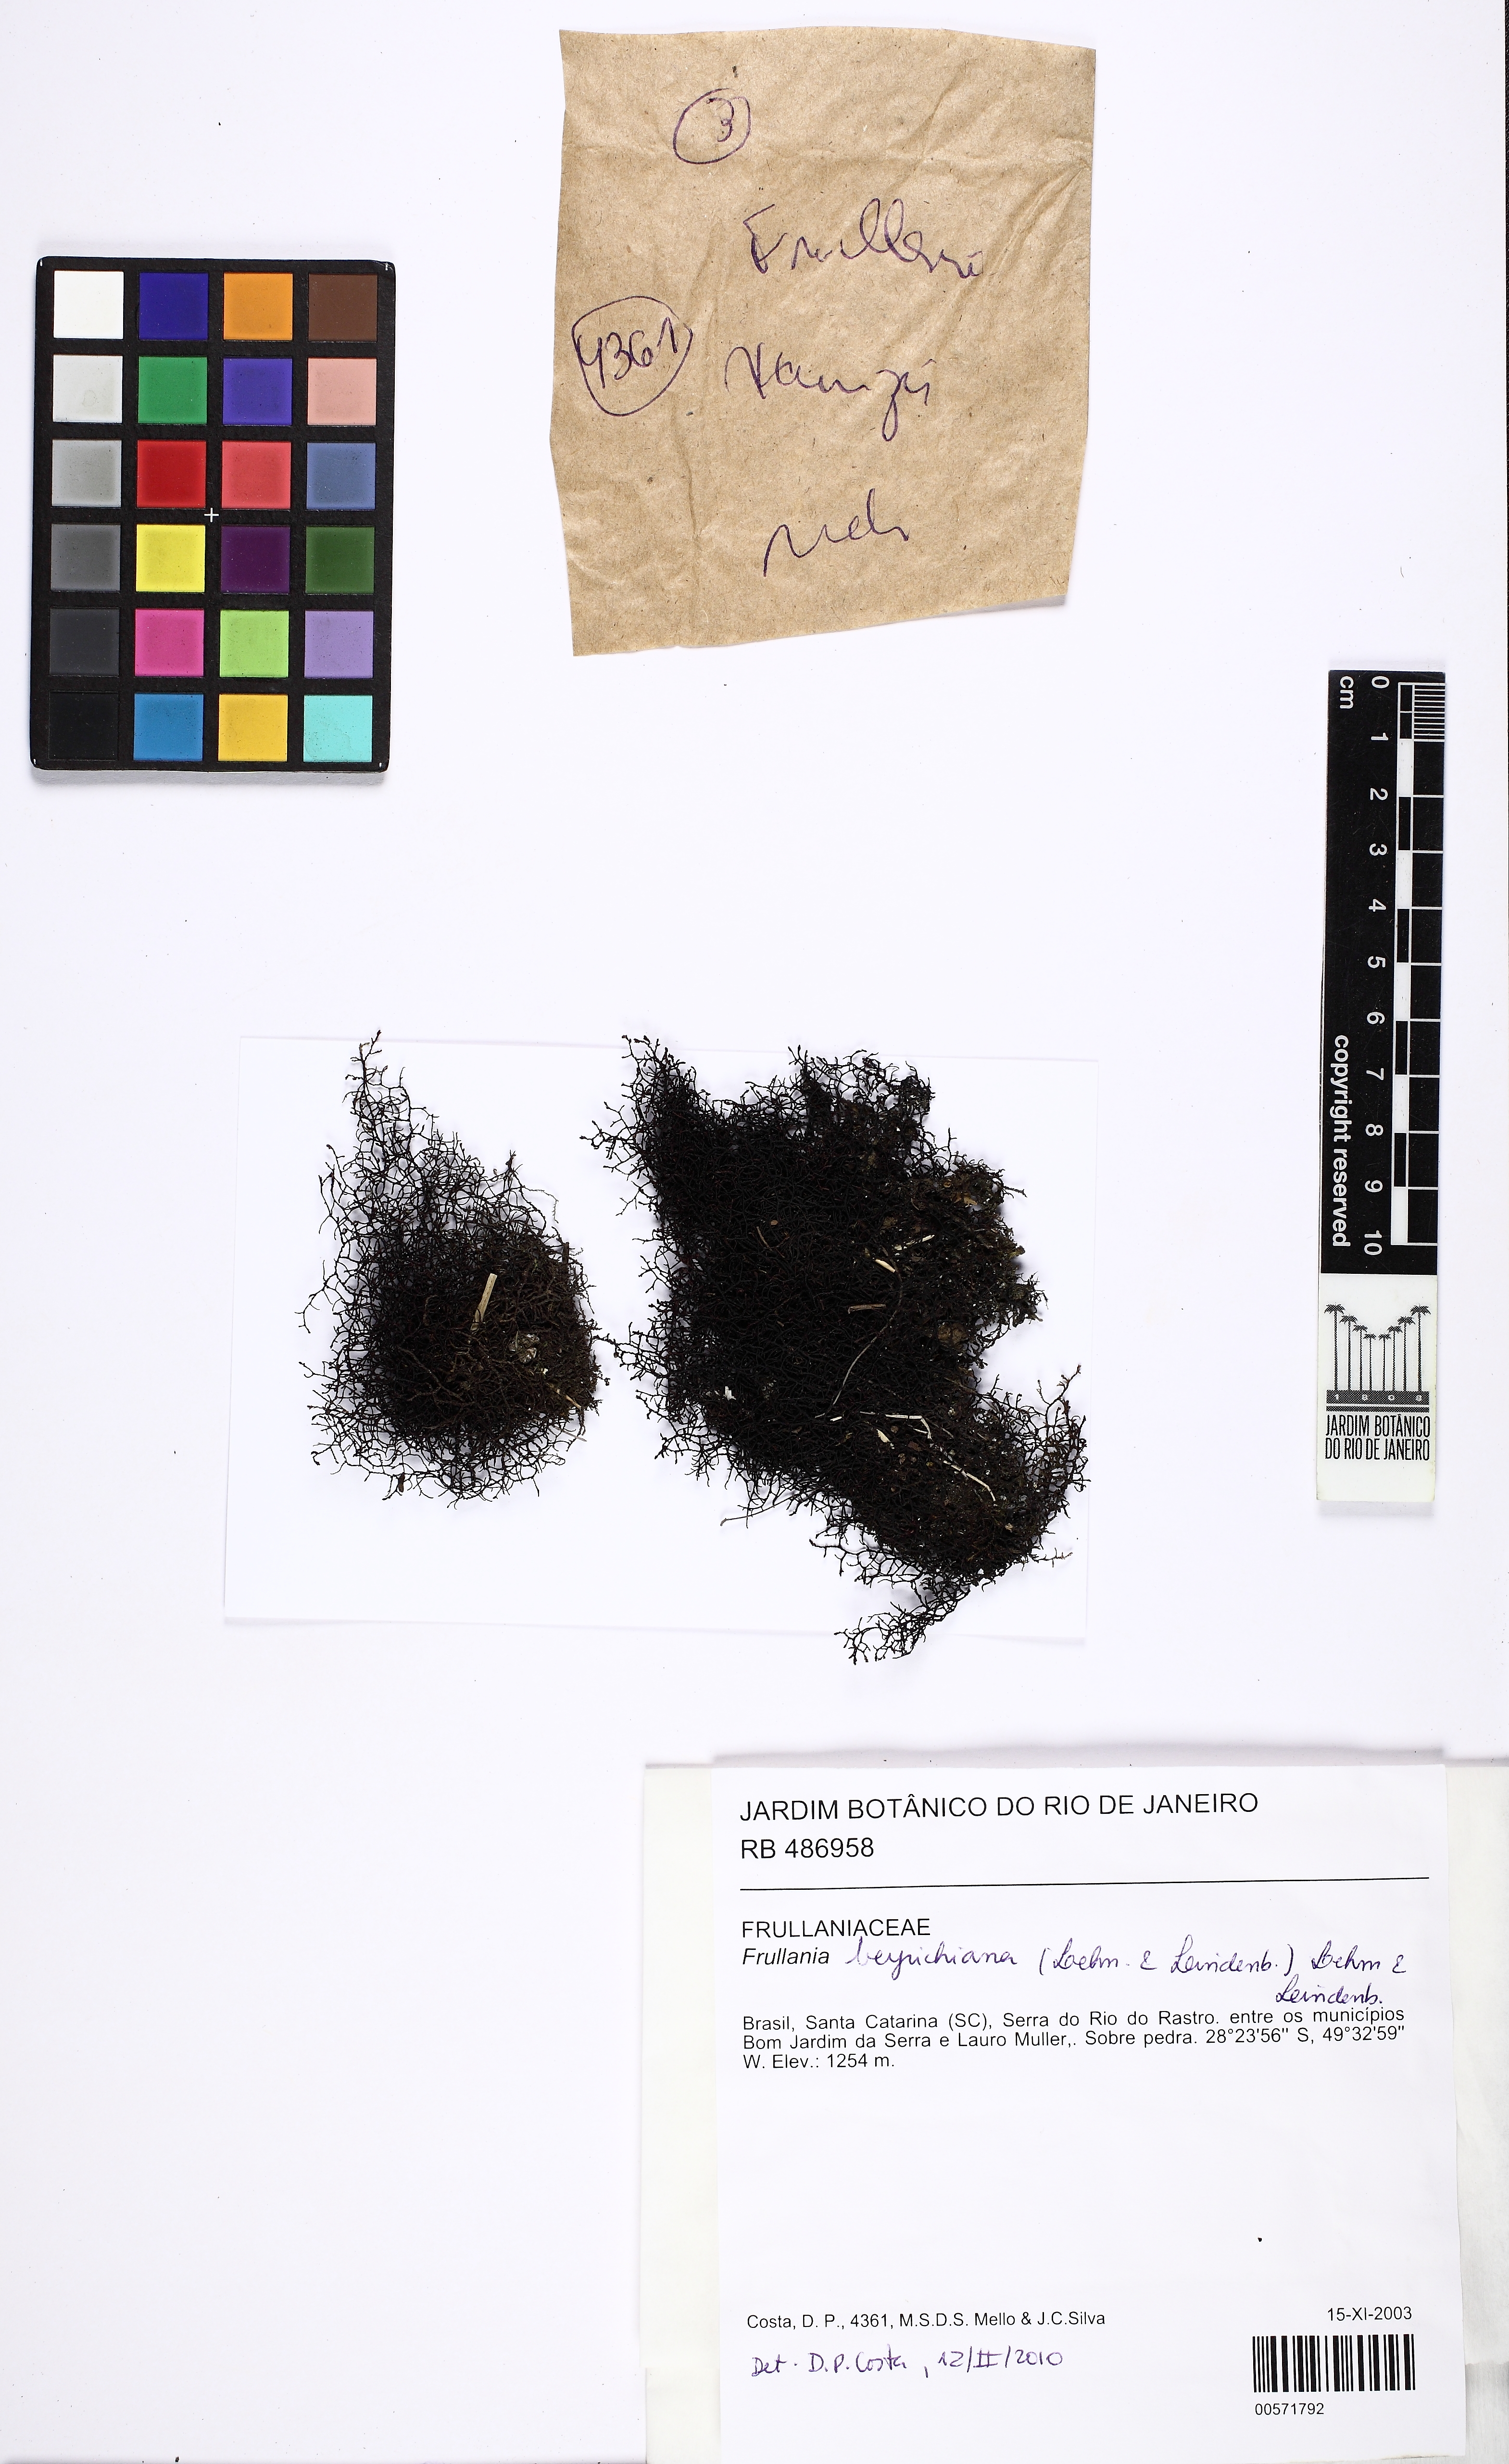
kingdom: Plantae
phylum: Marchantiophyta
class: Jungermanniopsida
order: Porellales
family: Frullaniaceae
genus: Frullania
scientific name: Frullania
